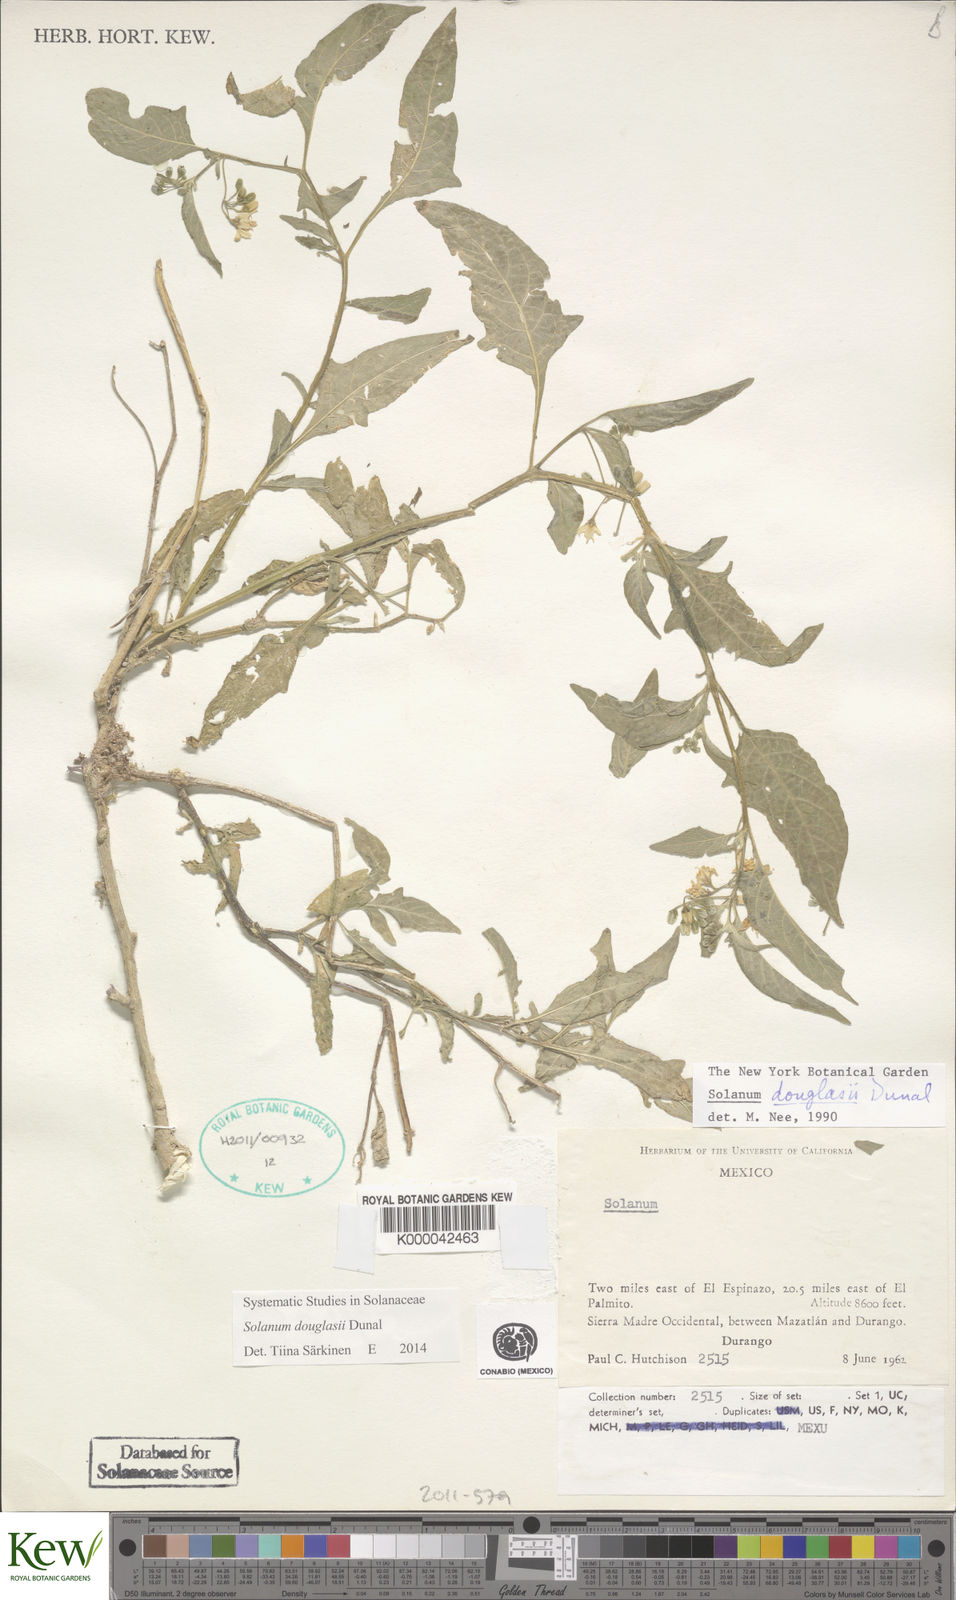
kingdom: Plantae
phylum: Tracheophyta
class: Magnoliopsida
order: Solanales
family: Solanaceae
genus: Solanum
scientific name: Solanum douglasii
